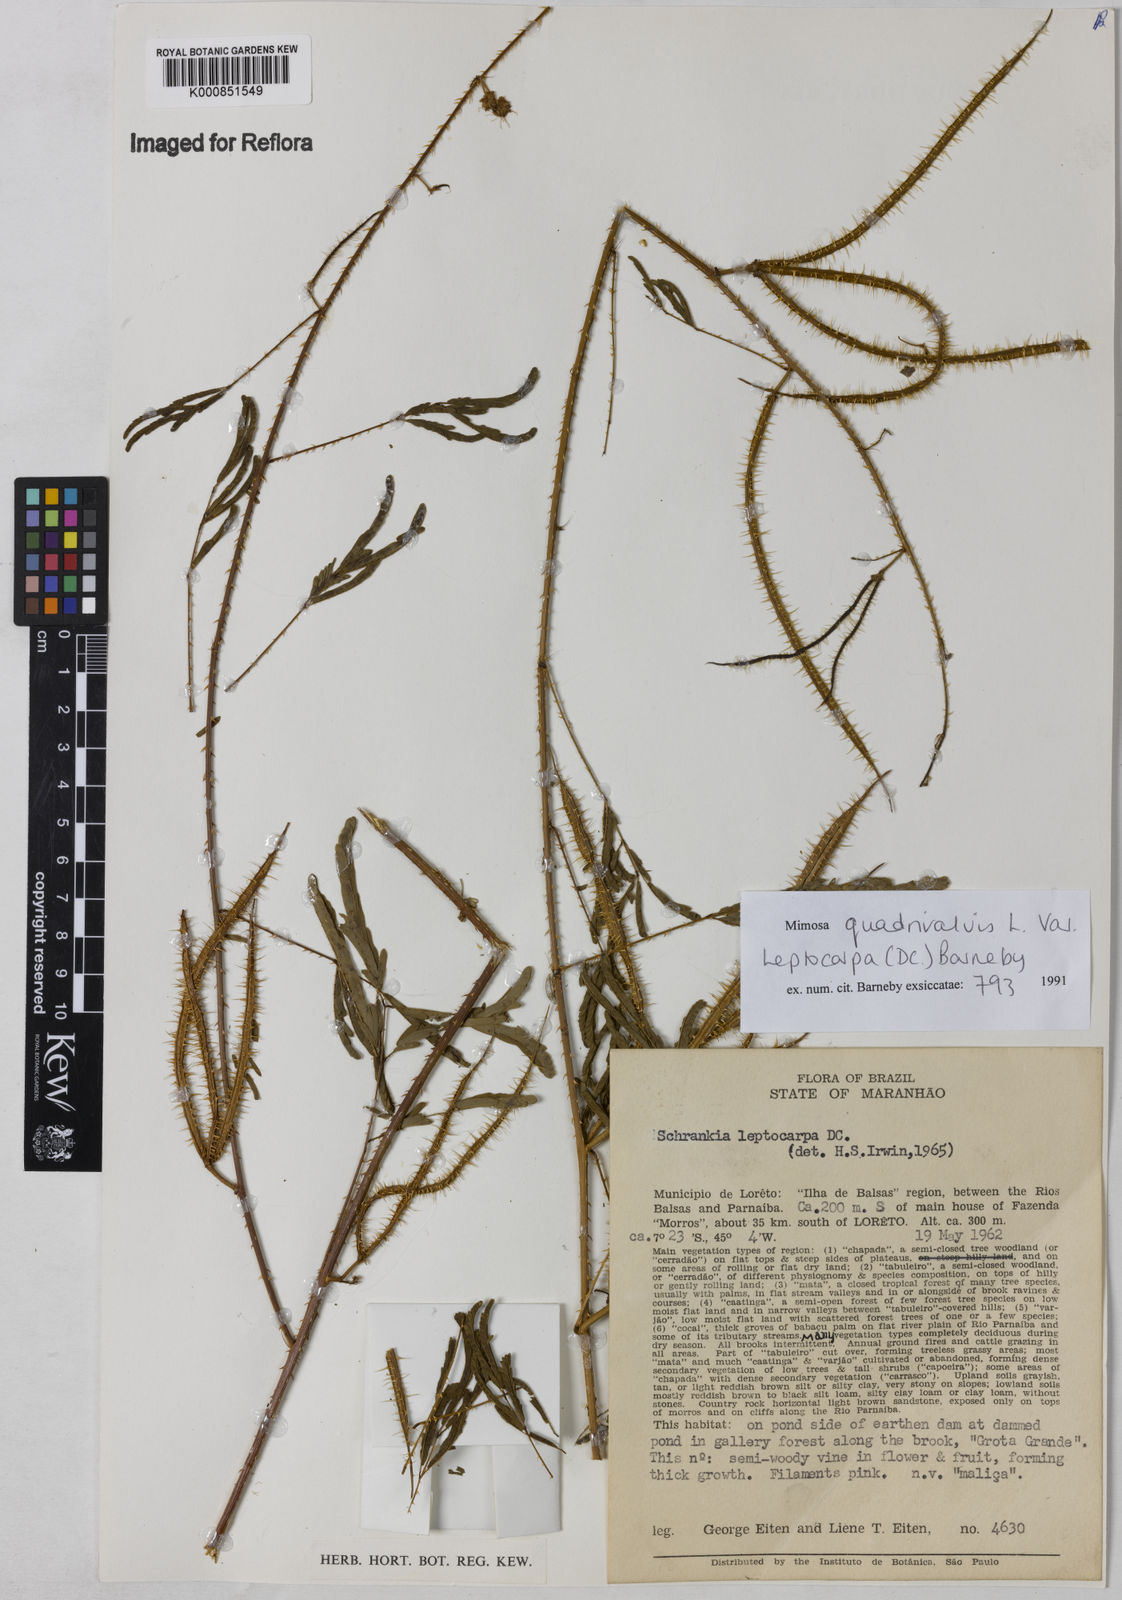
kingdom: Plantae
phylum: Tracheophyta
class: Magnoliopsida
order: Fabales
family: Fabaceae
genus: Mimosa
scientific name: Mimosa candollei
